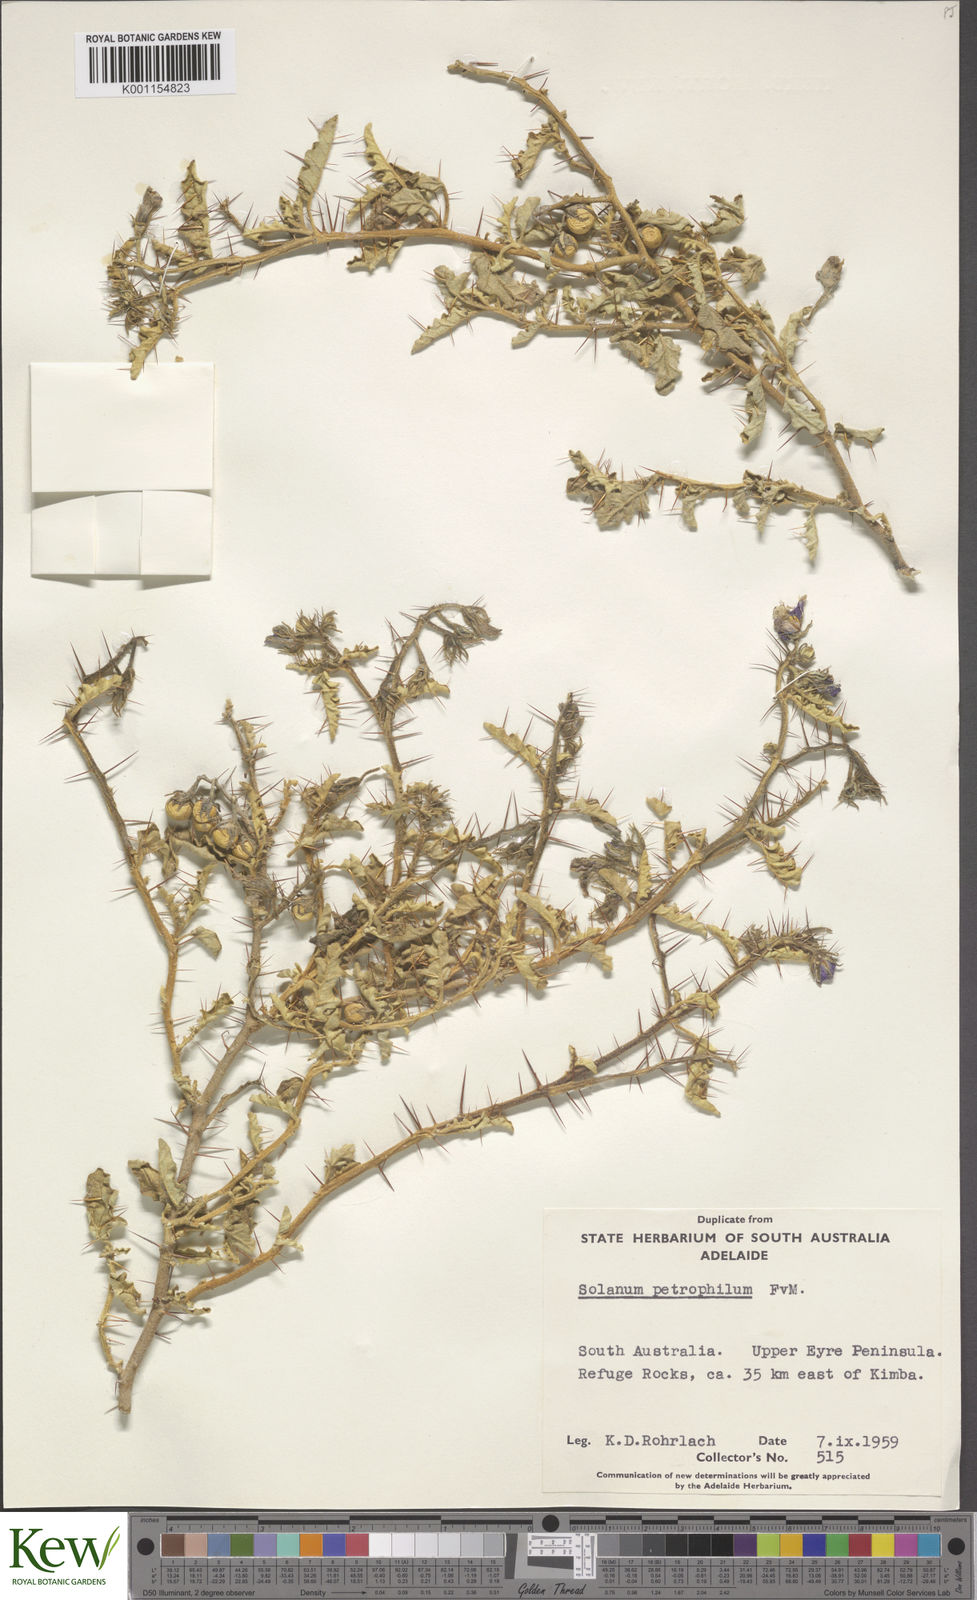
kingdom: Plantae
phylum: Tracheophyta
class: Magnoliopsida
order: Solanales
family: Solanaceae
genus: Solanum
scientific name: Solanum petrophilum
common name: Rock nightshade
